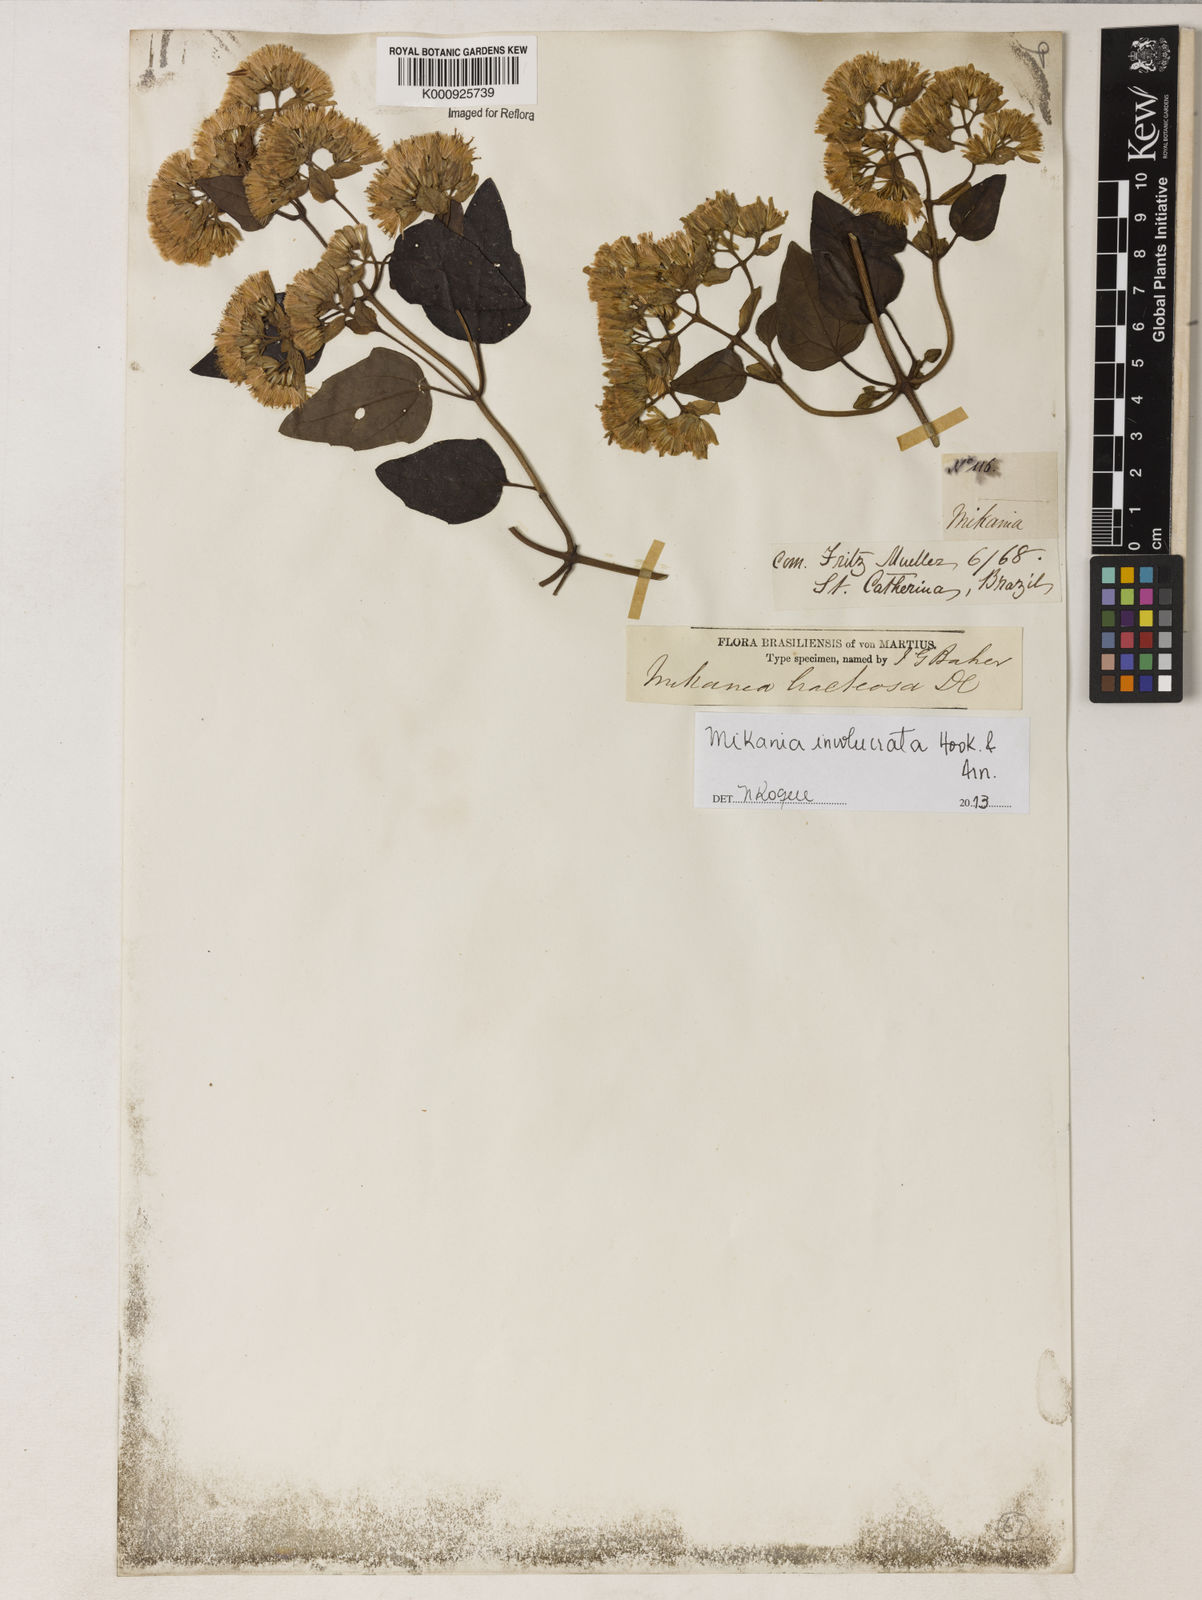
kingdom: Plantae
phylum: Tracheophyta
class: Magnoliopsida
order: Asterales
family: Asteraceae
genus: Mikania
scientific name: Mikania involucrata
